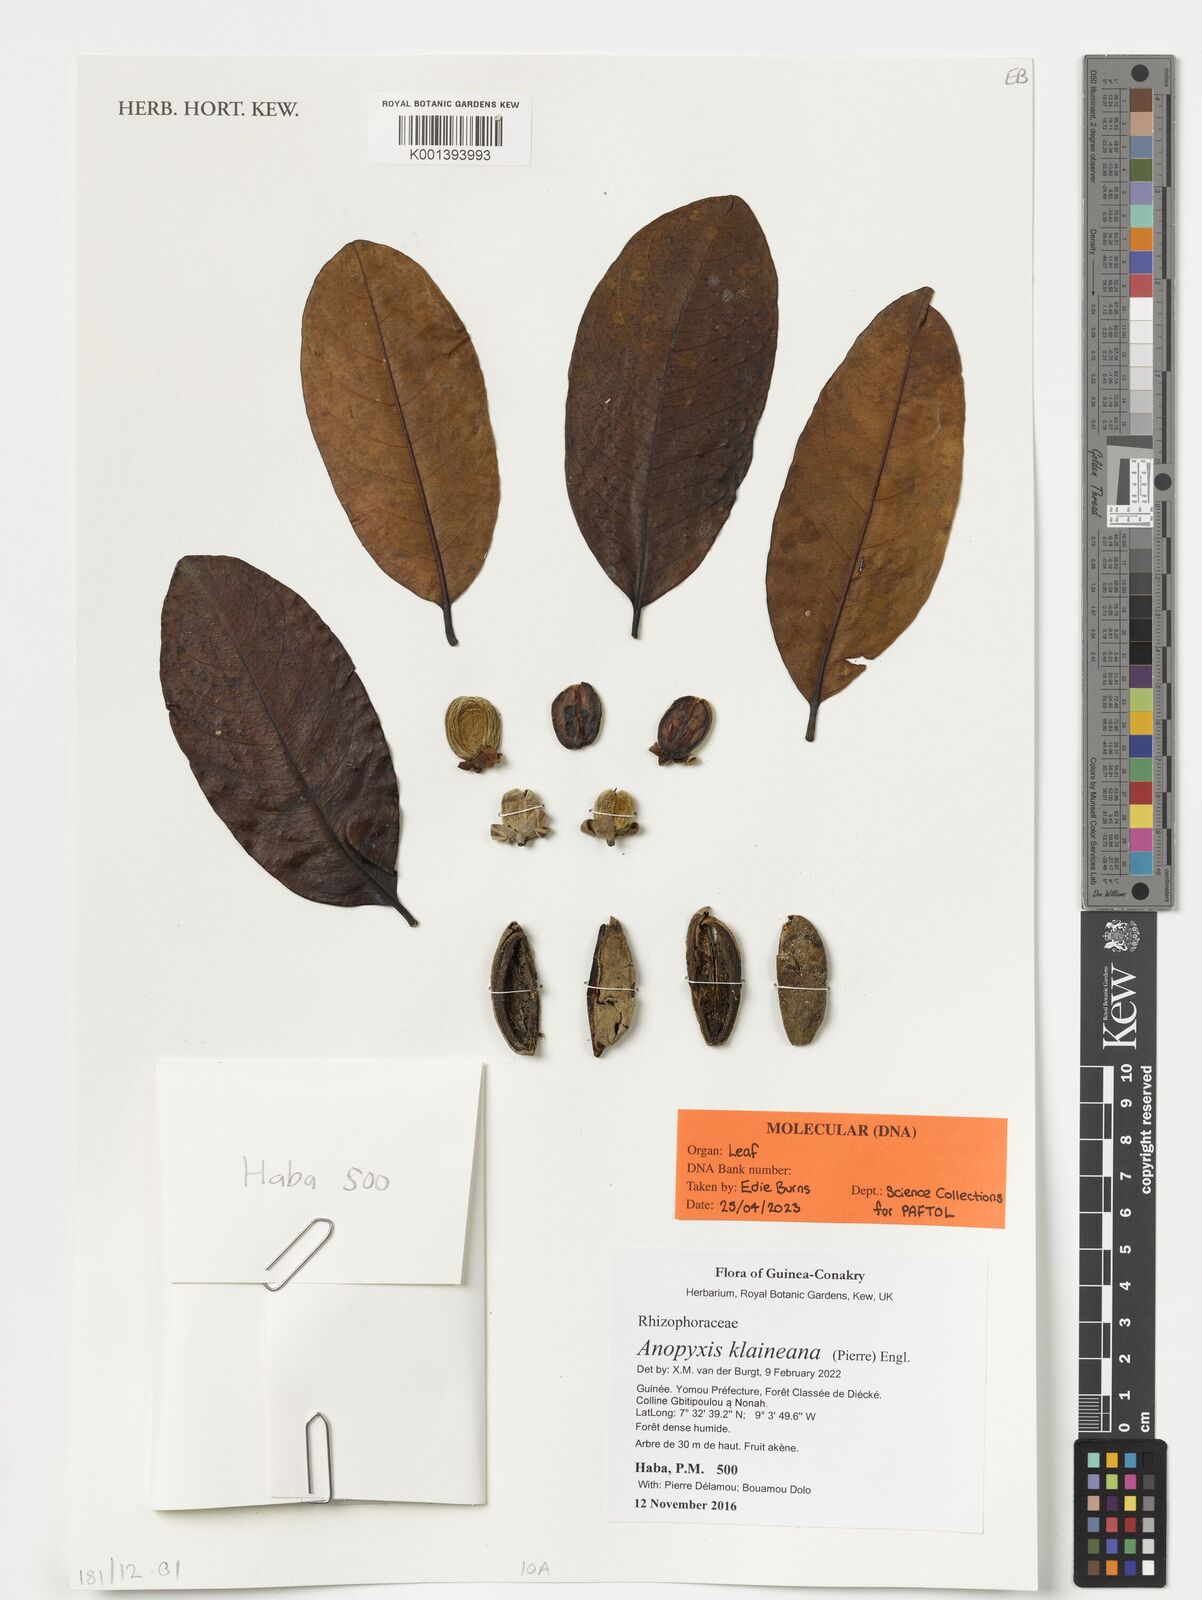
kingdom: Plantae
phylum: Tracheophyta
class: Magnoliopsida
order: Malpighiales
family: Rhizophoraceae
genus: Anopyxis
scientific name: Anopyxis klaineana
